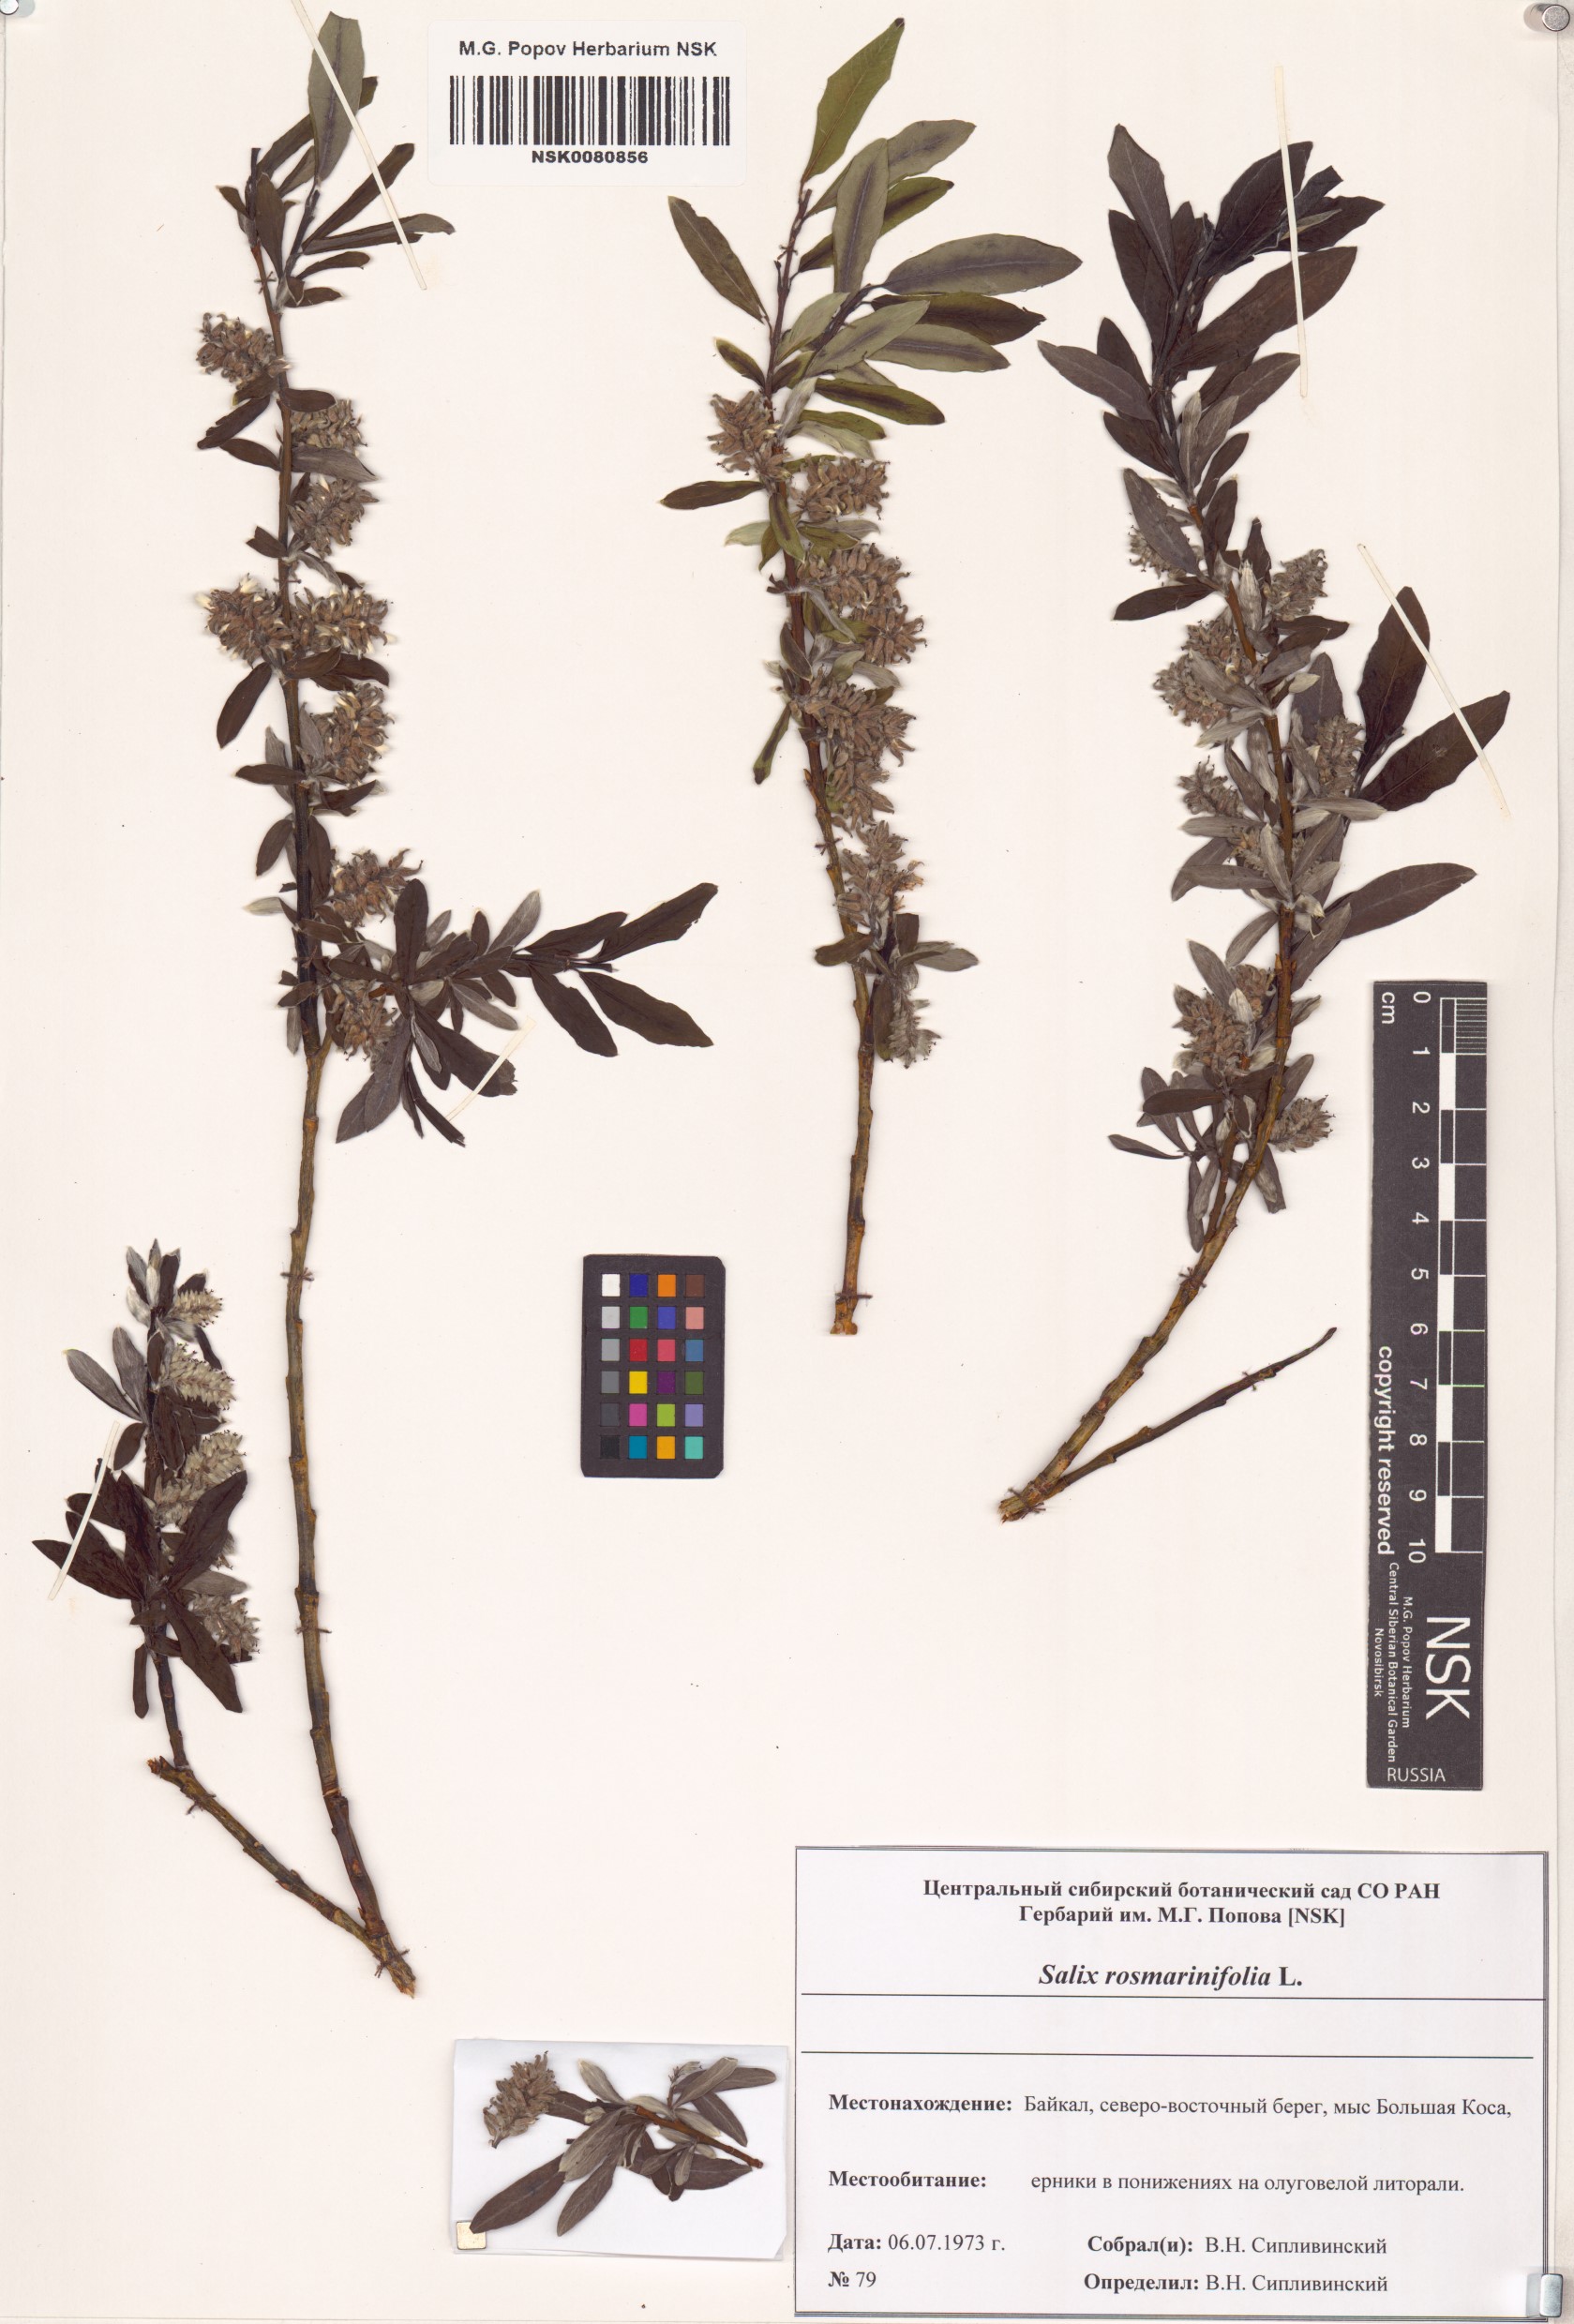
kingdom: Plantae
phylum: Tracheophyta
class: Magnoliopsida
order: Malpighiales
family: Salicaceae
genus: Salix
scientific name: Salix rosmarinifolia
